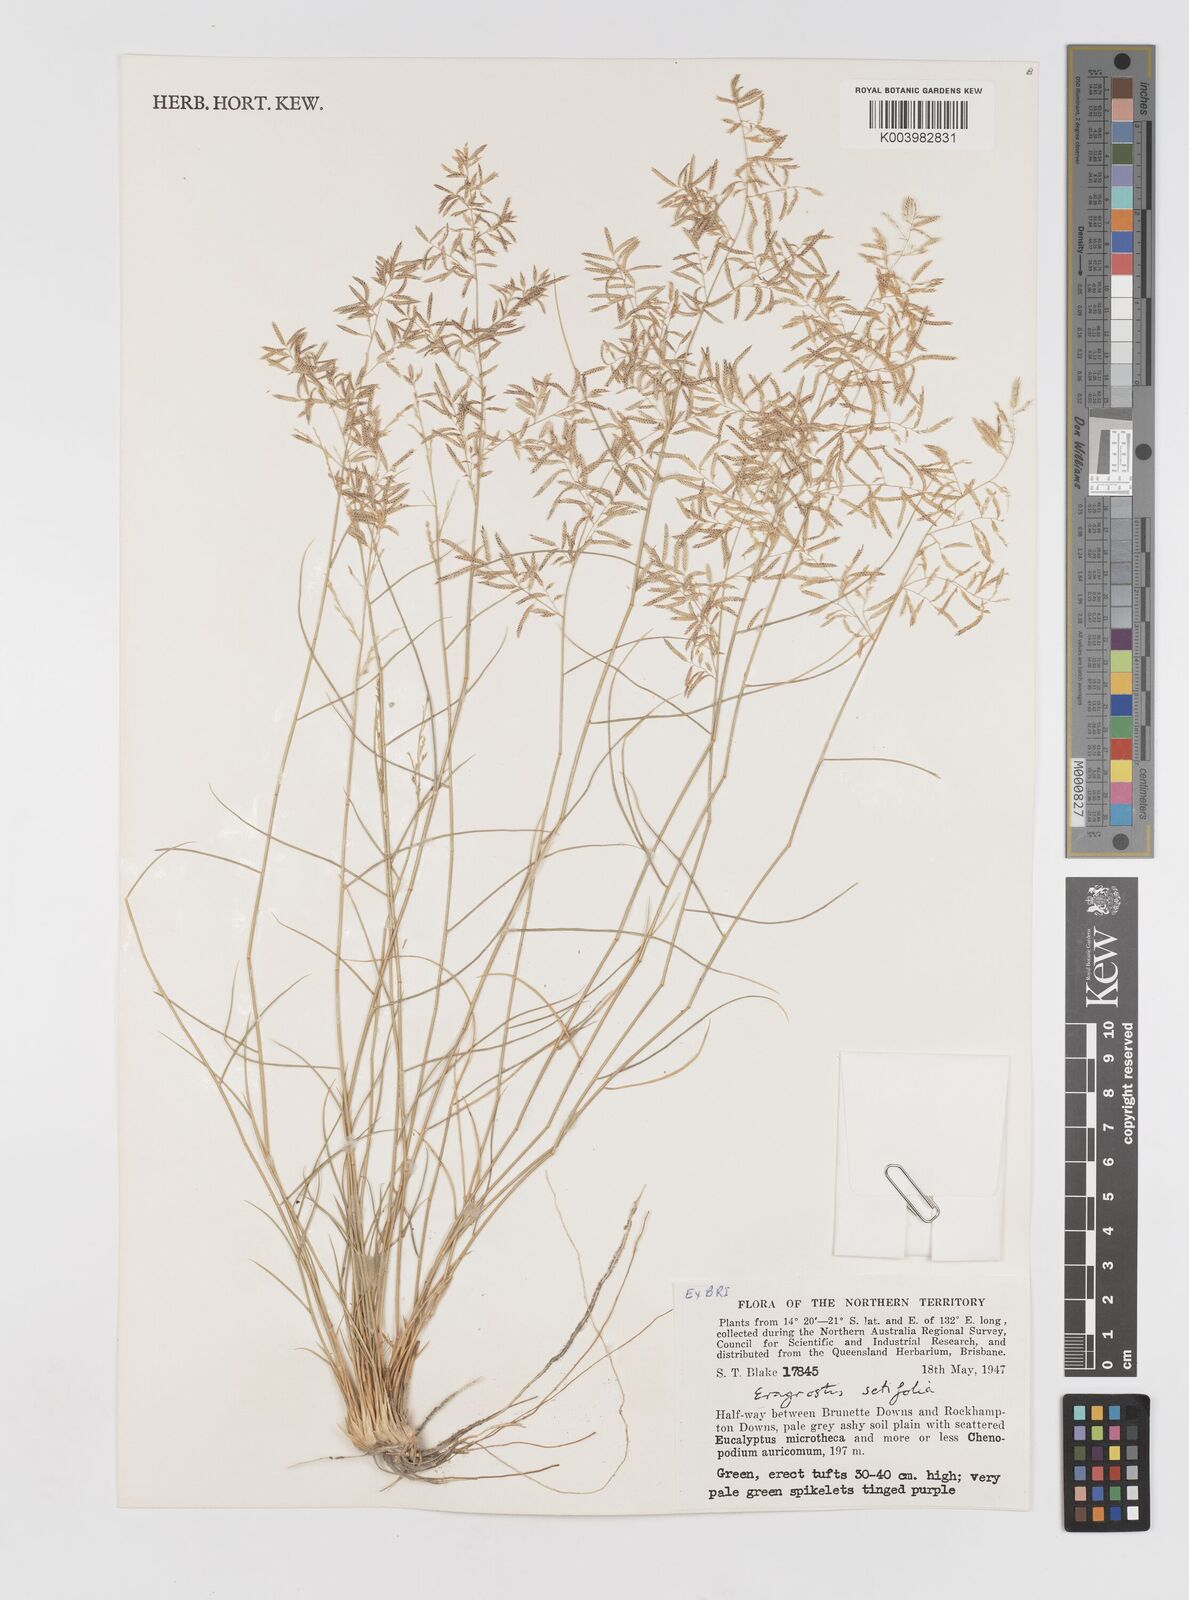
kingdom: Plantae
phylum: Tracheophyta
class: Liliopsida
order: Poales
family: Poaceae
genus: Eragrostis
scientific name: Eragrostis setifolia
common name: Bristleleaf lovegrass
